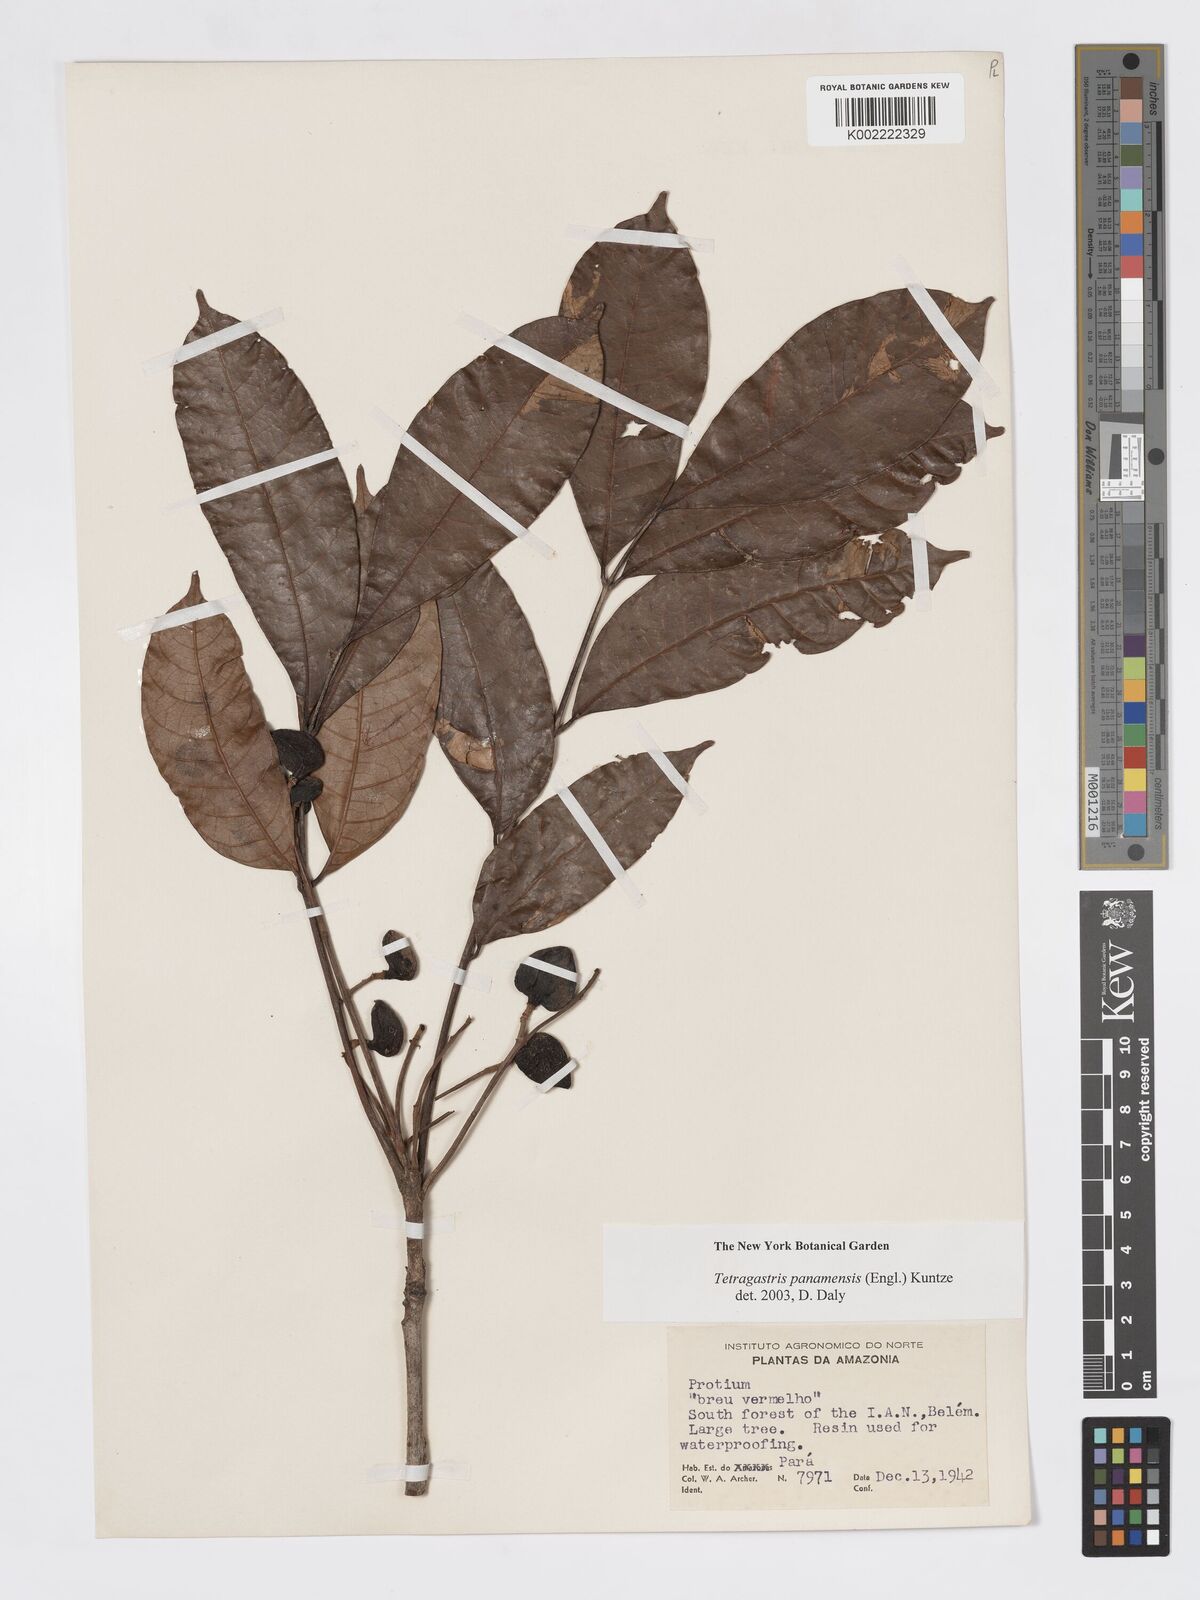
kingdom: Plantae
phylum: Tracheophyta
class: Magnoliopsida
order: Sapindales
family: Burseraceae
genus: Tetragastris
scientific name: Tetragastris panamensis
